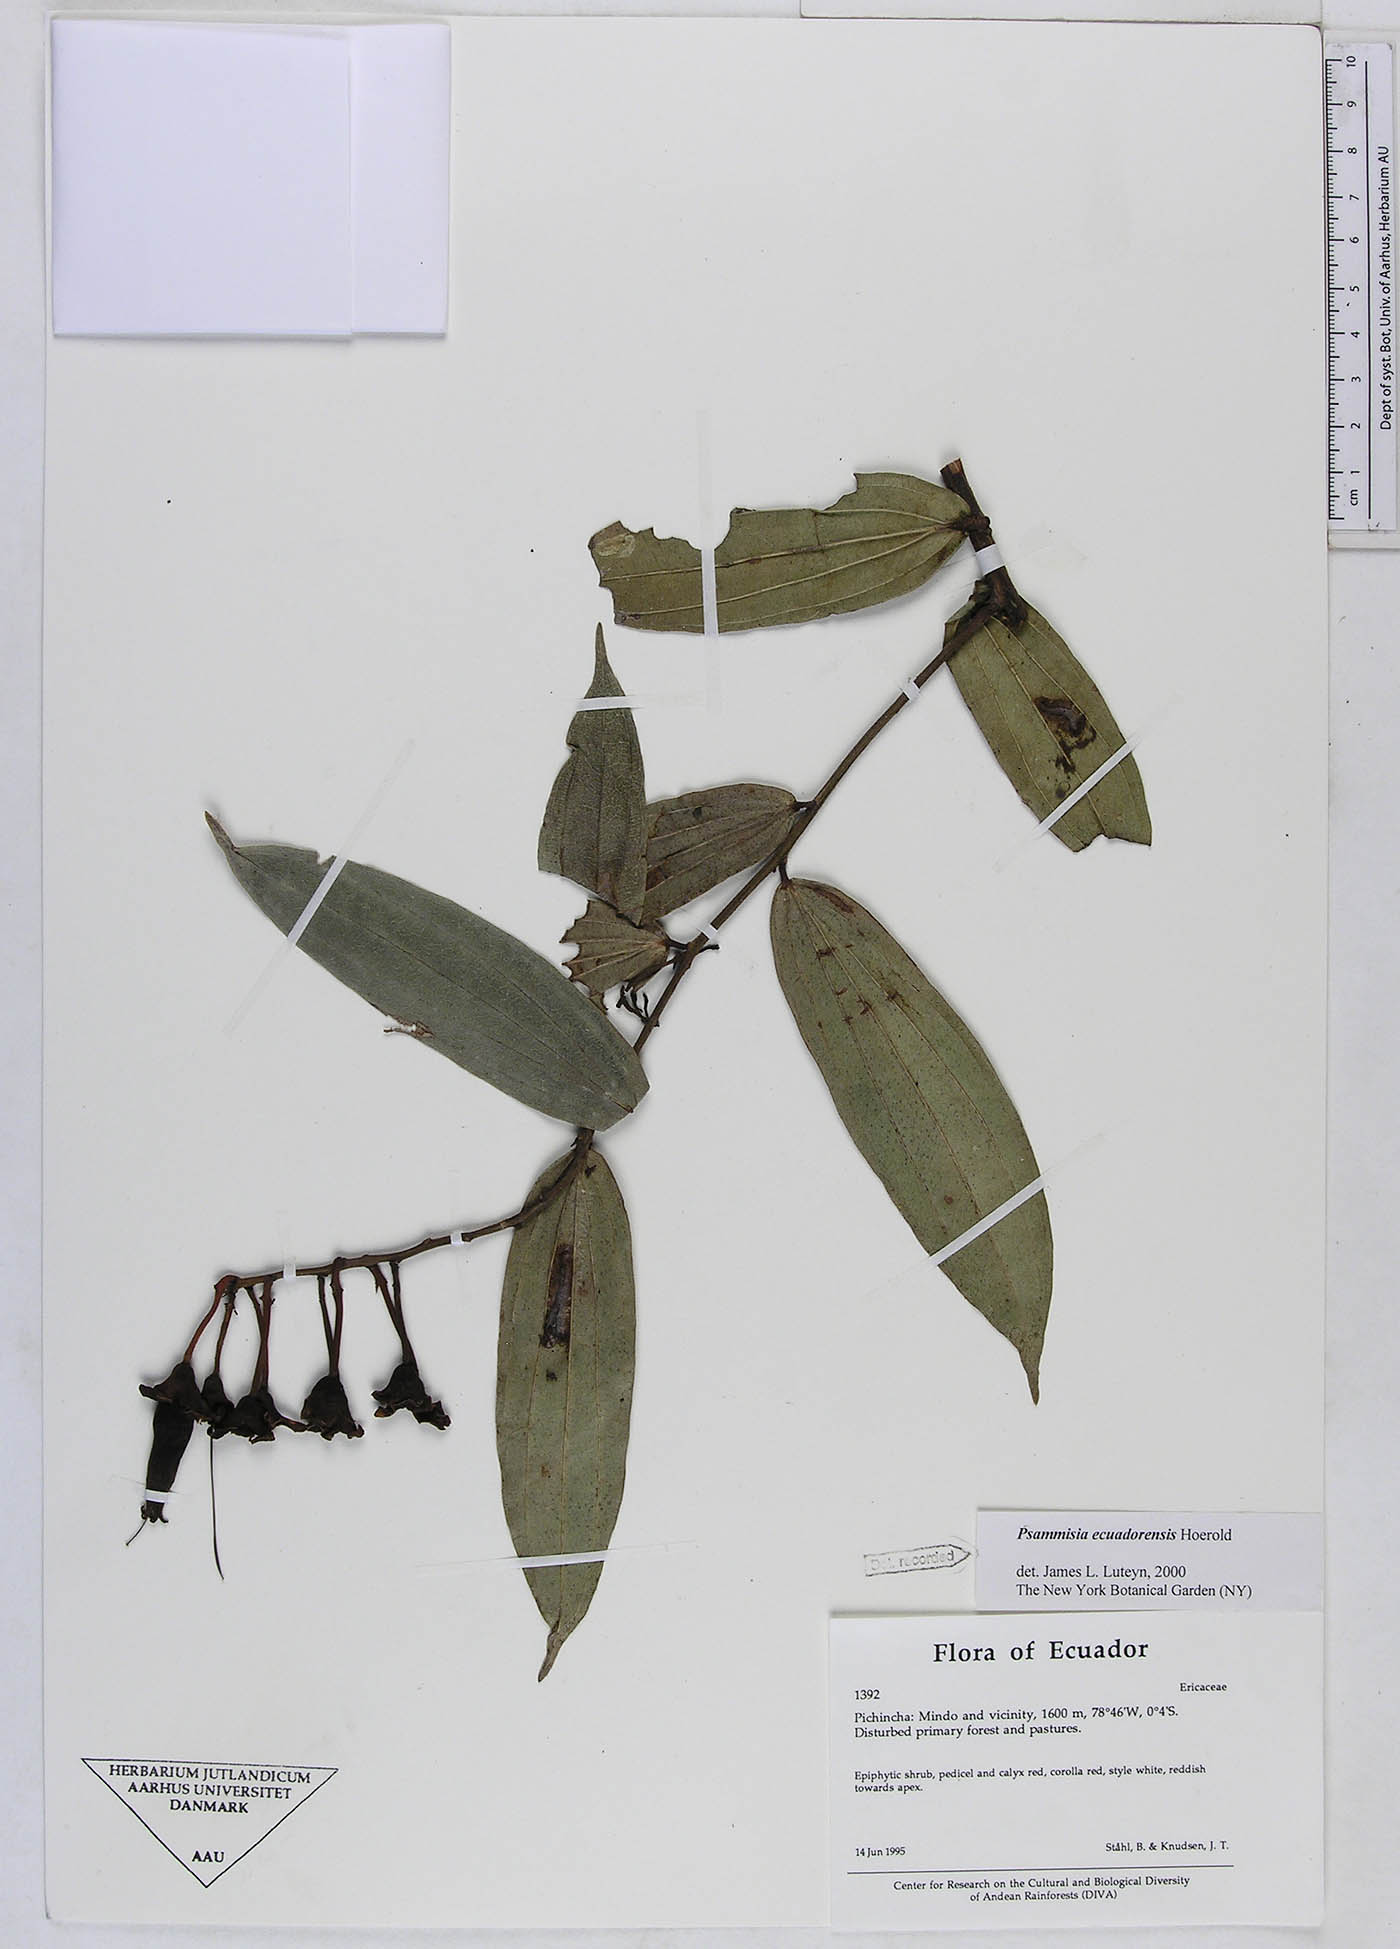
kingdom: Plantae
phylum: Tracheophyta
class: Magnoliopsida
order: Ericales
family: Ericaceae
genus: Psammisia
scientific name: Psammisia ecuadorensis
